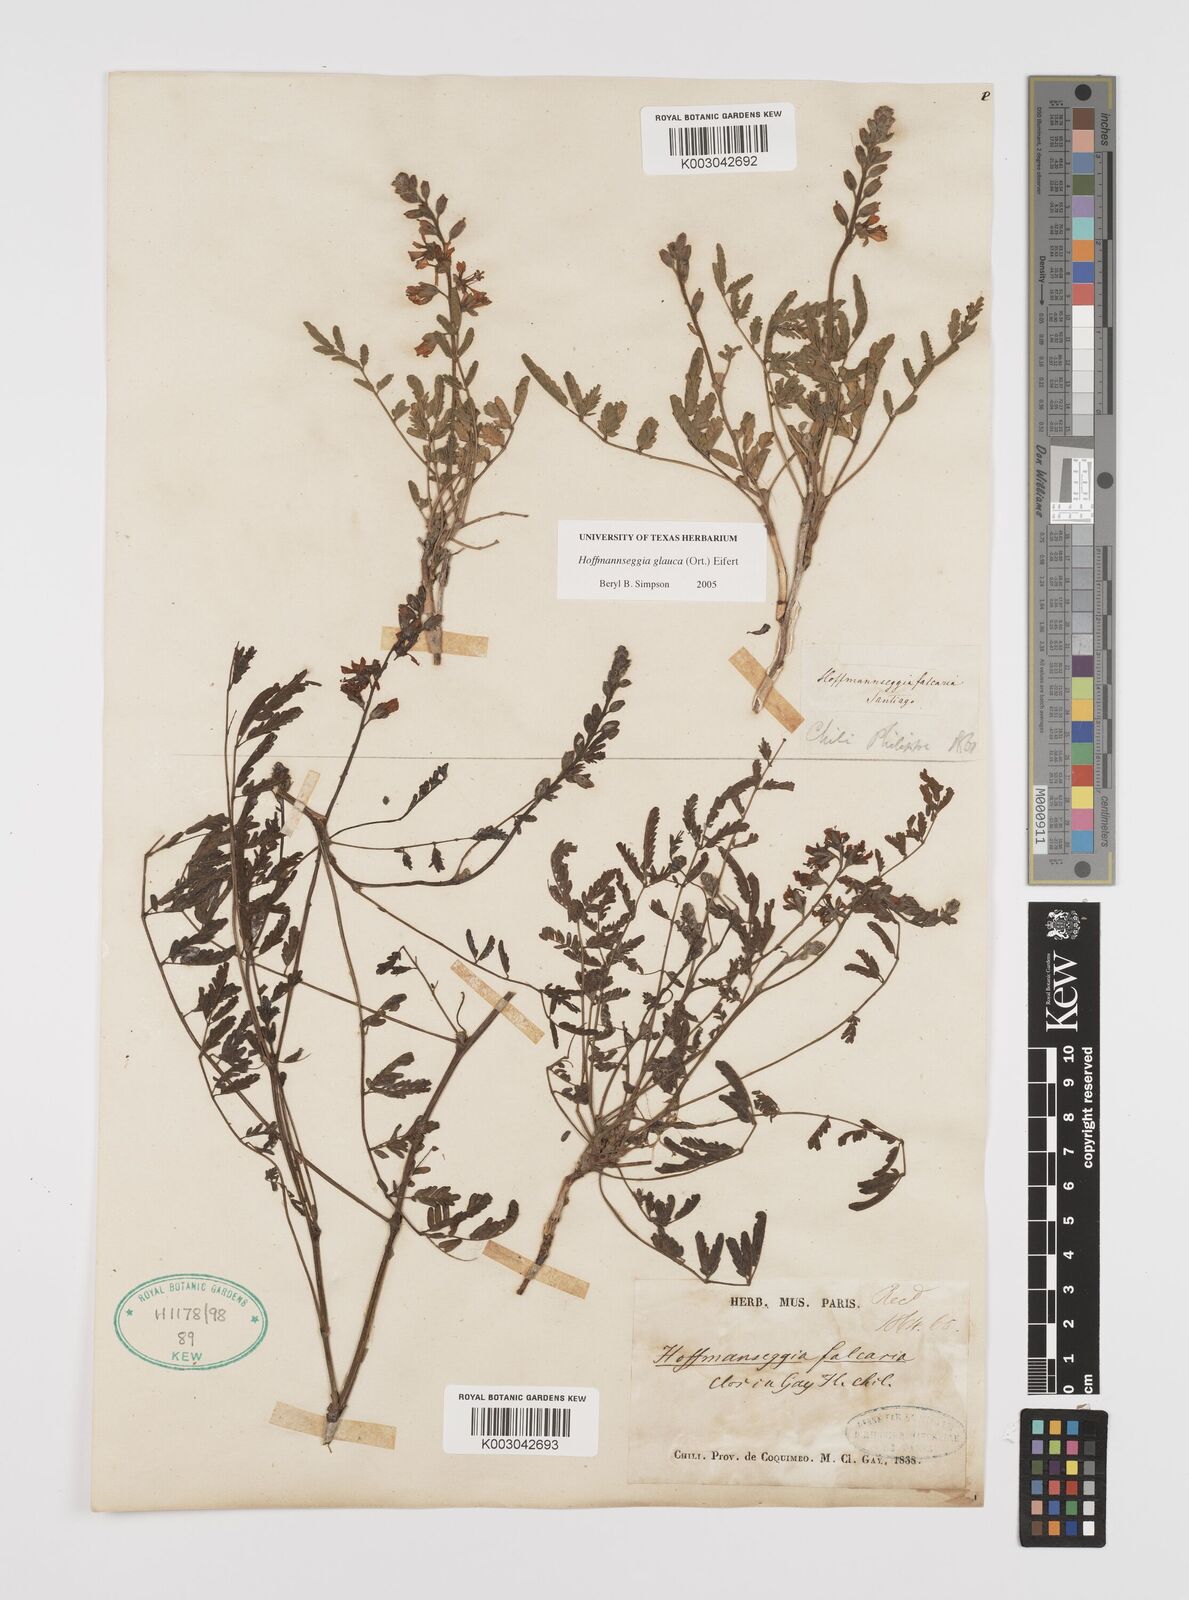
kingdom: Plantae
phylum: Tracheophyta
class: Magnoliopsida
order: Fabales
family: Fabaceae
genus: Hoffmannseggia
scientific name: Hoffmannseggia glauca
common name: Pignut
